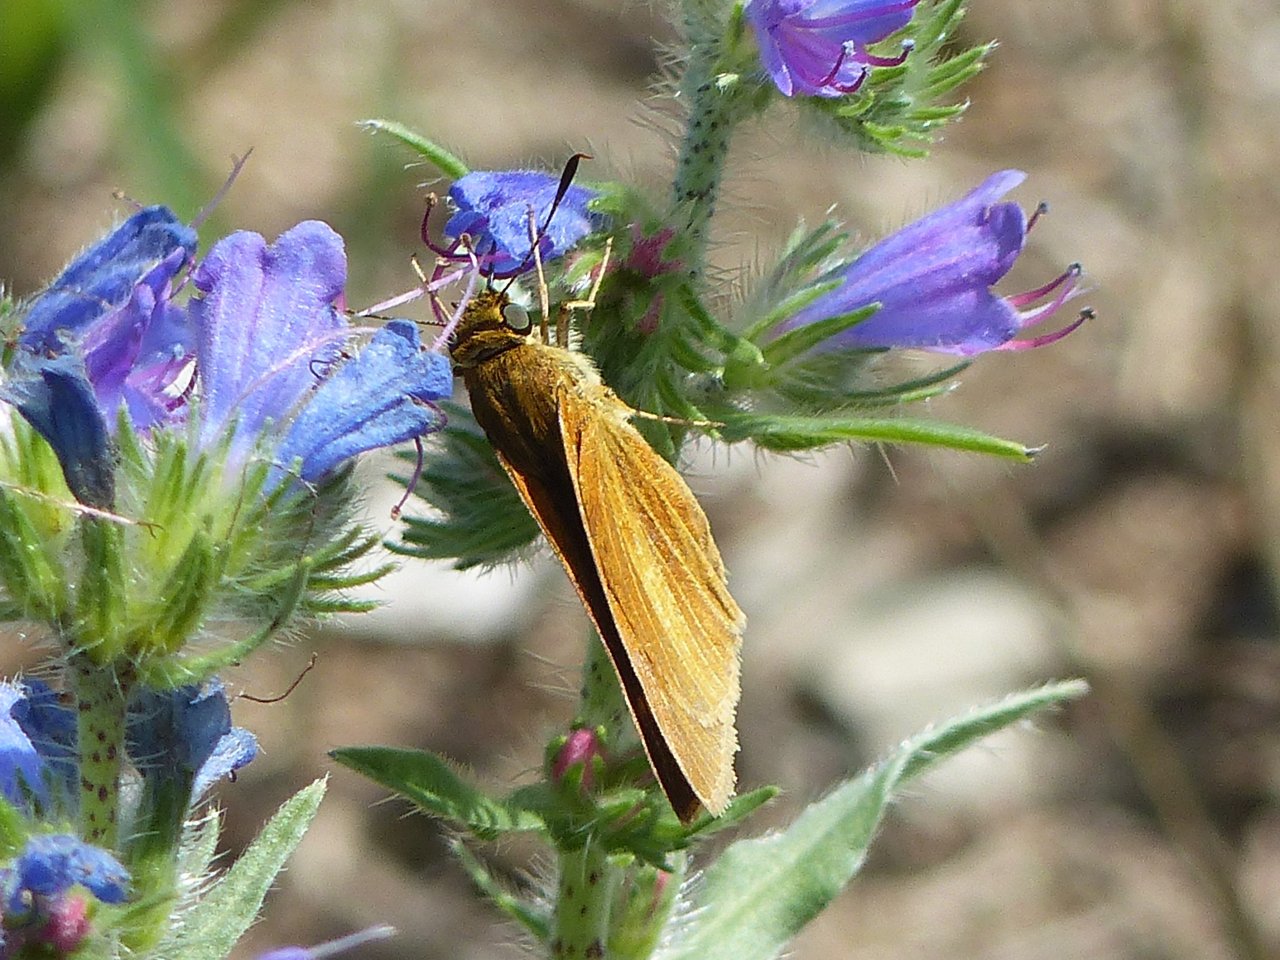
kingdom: Animalia
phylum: Arthropoda
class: Insecta
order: Lepidoptera
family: Hesperiidae
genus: Euphyes
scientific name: Euphyes dion
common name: Dion Skipper
